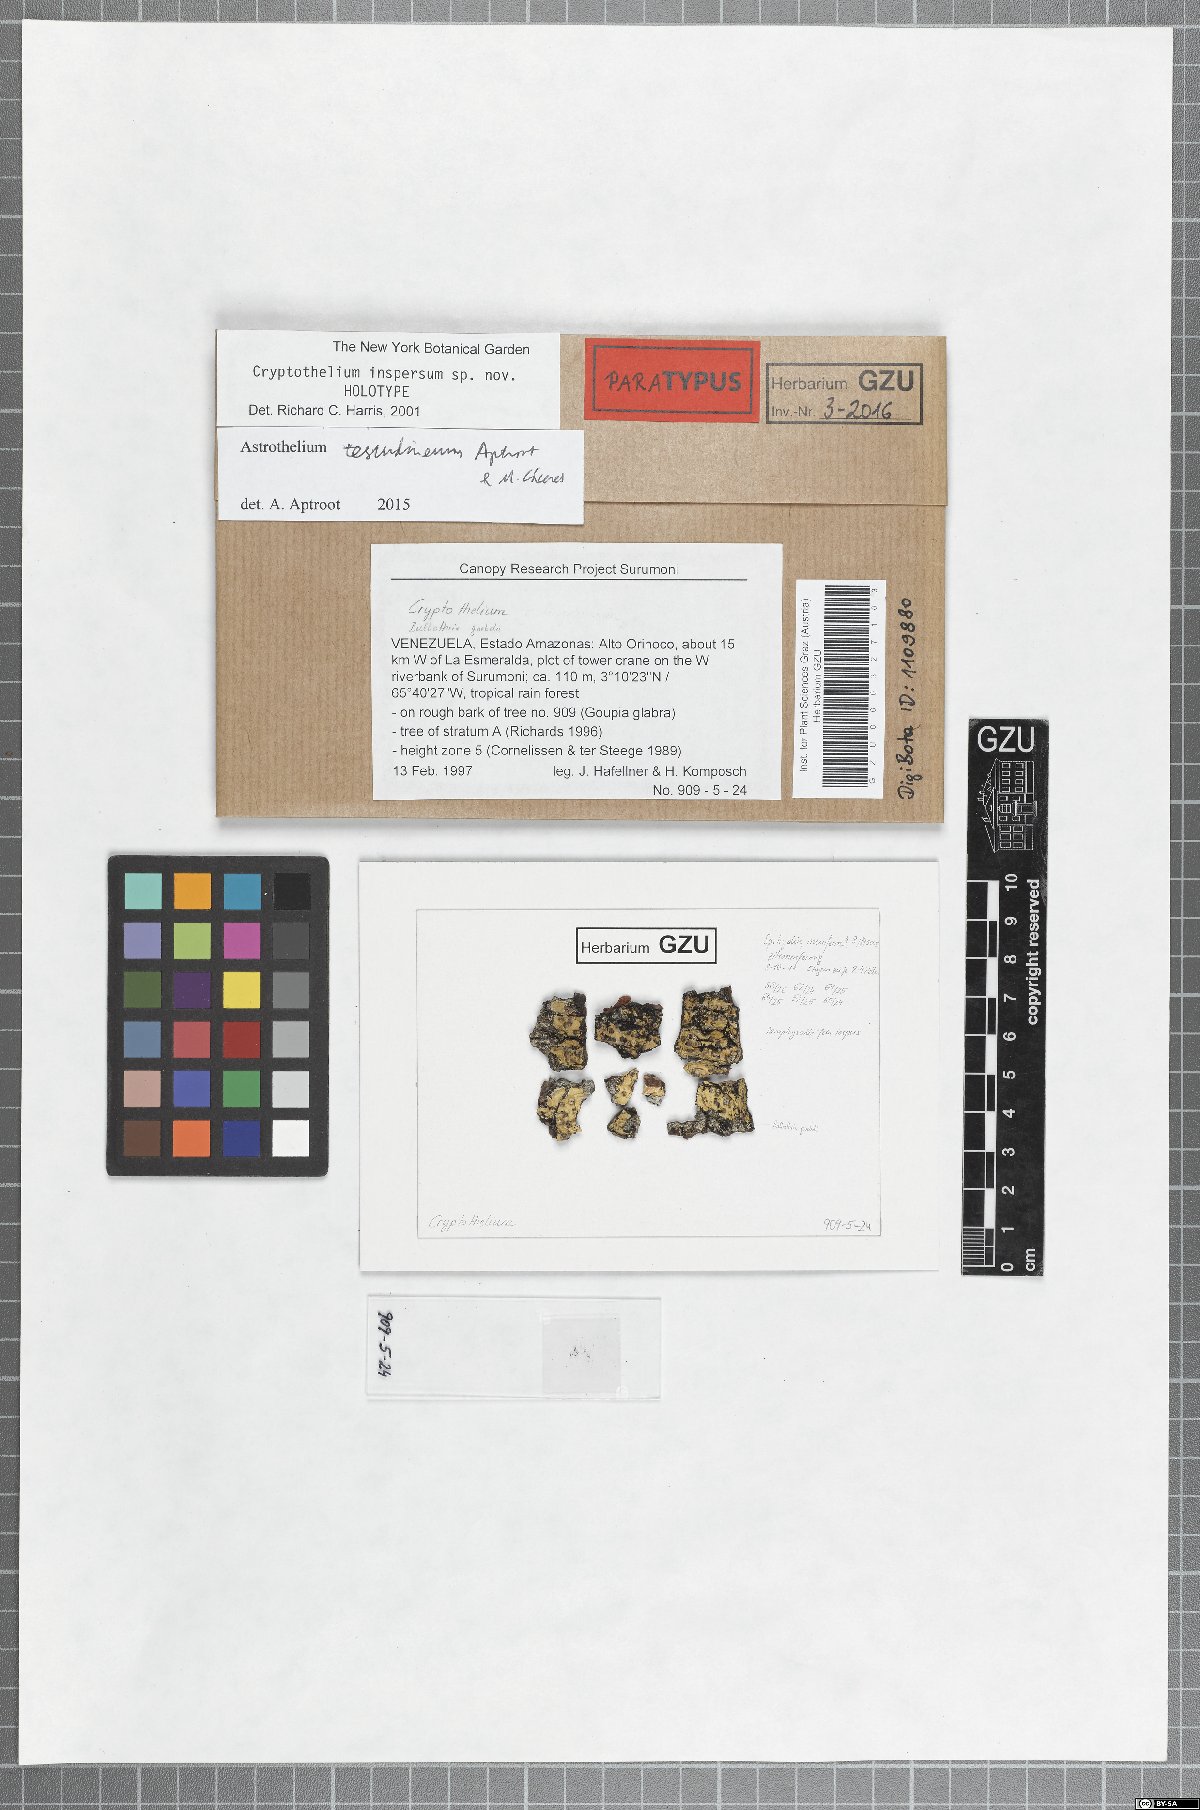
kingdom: Fungi
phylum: Ascomycota
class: Dothideomycetes
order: Trypetheliales
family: Trypetheliaceae
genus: Astrothelium
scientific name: Astrothelium testudineum
